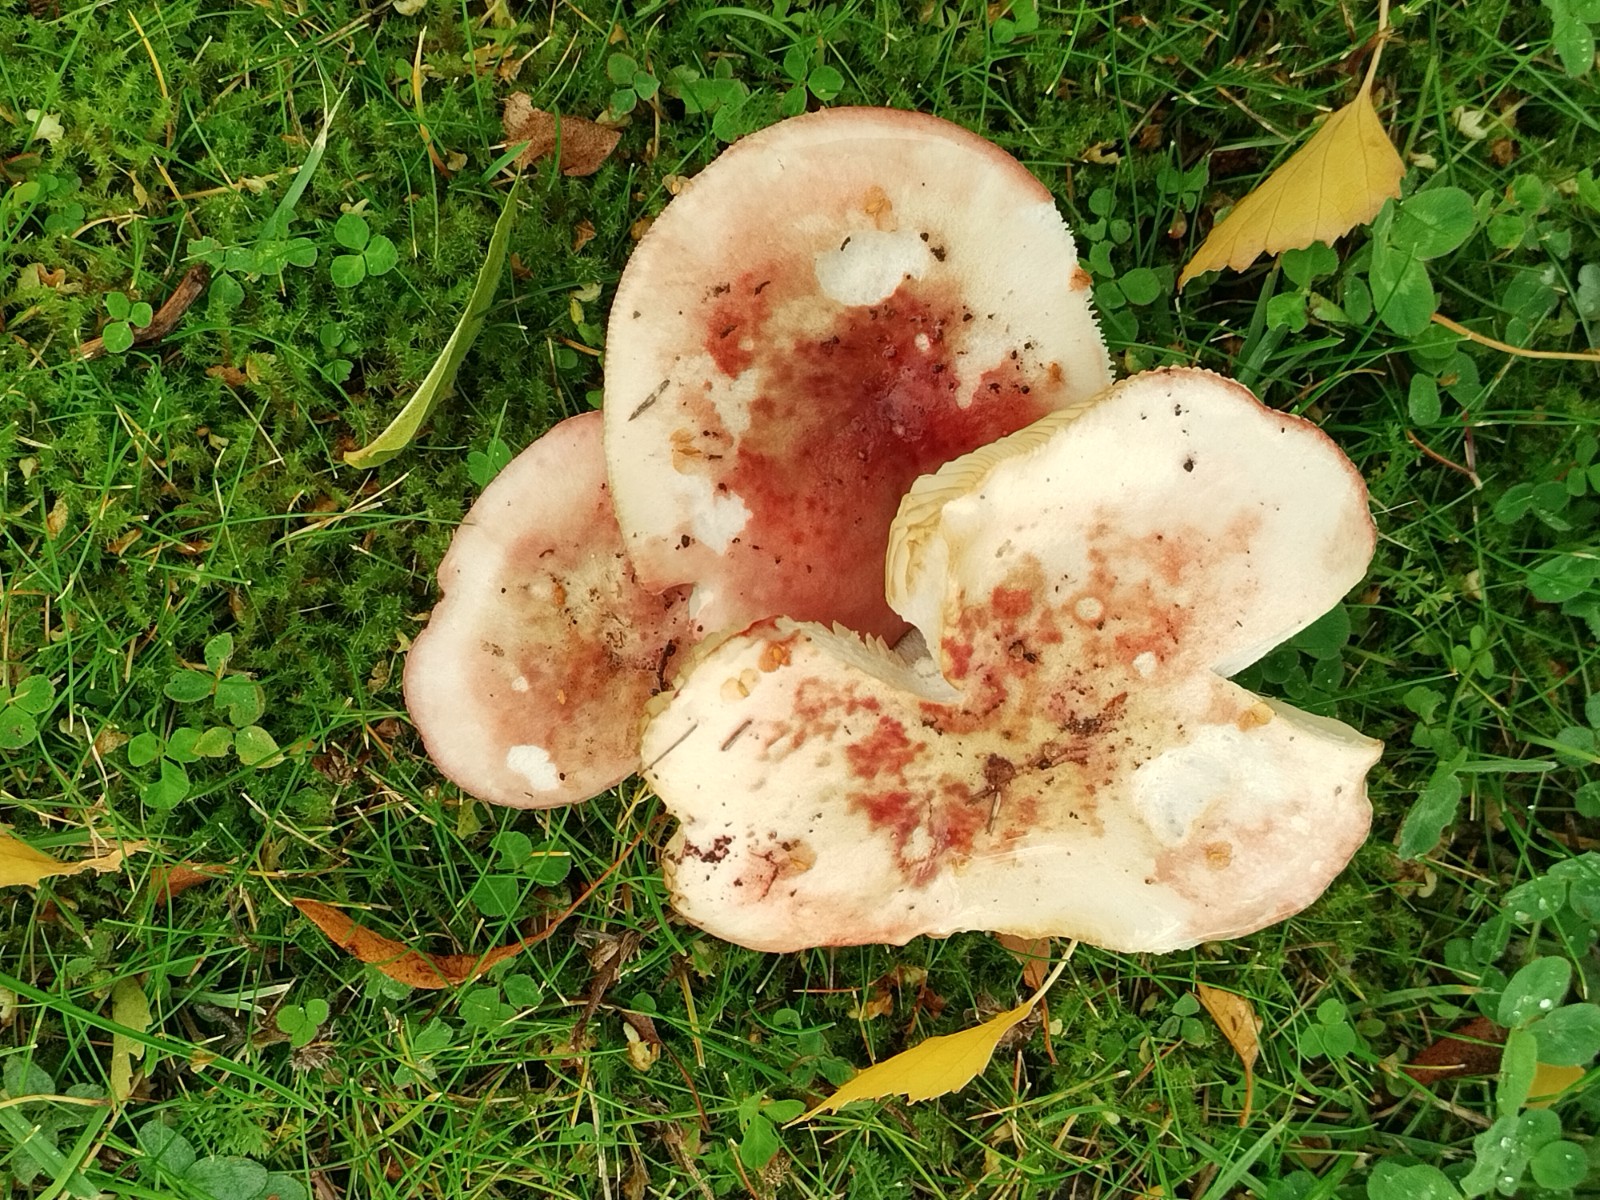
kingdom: Fungi
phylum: Basidiomycota
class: Agaricomycetes
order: Russulales
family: Russulaceae
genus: Russula
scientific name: Russula depallens
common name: falmende skørhat
